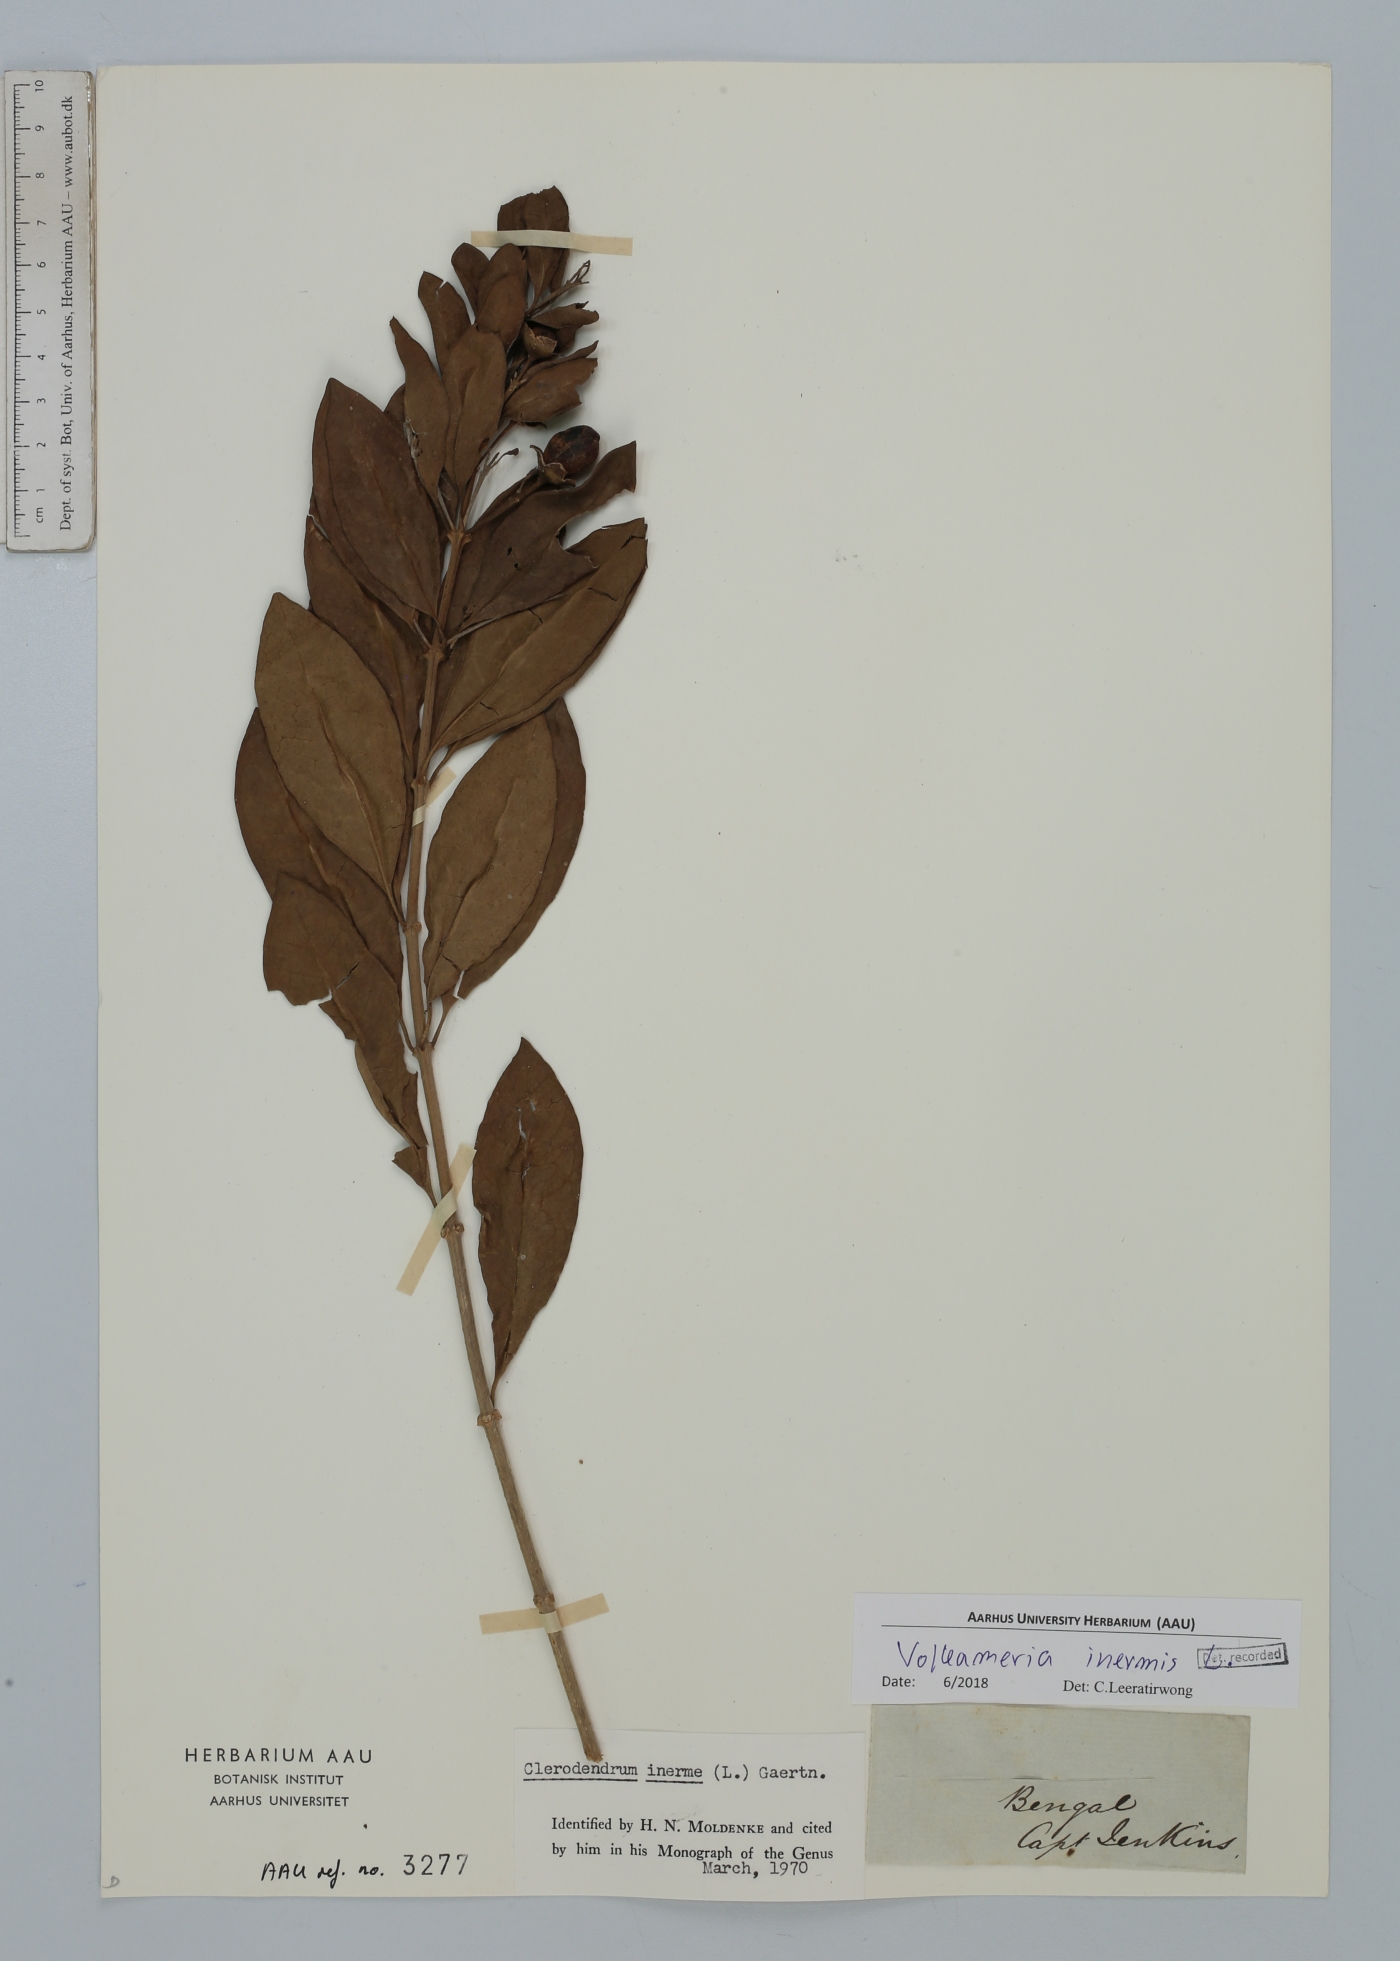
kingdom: Plantae
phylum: Tracheophyta
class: Magnoliopsida
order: Lamiales
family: Lamiaceae
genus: Volkameria
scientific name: Volkameria inermis
